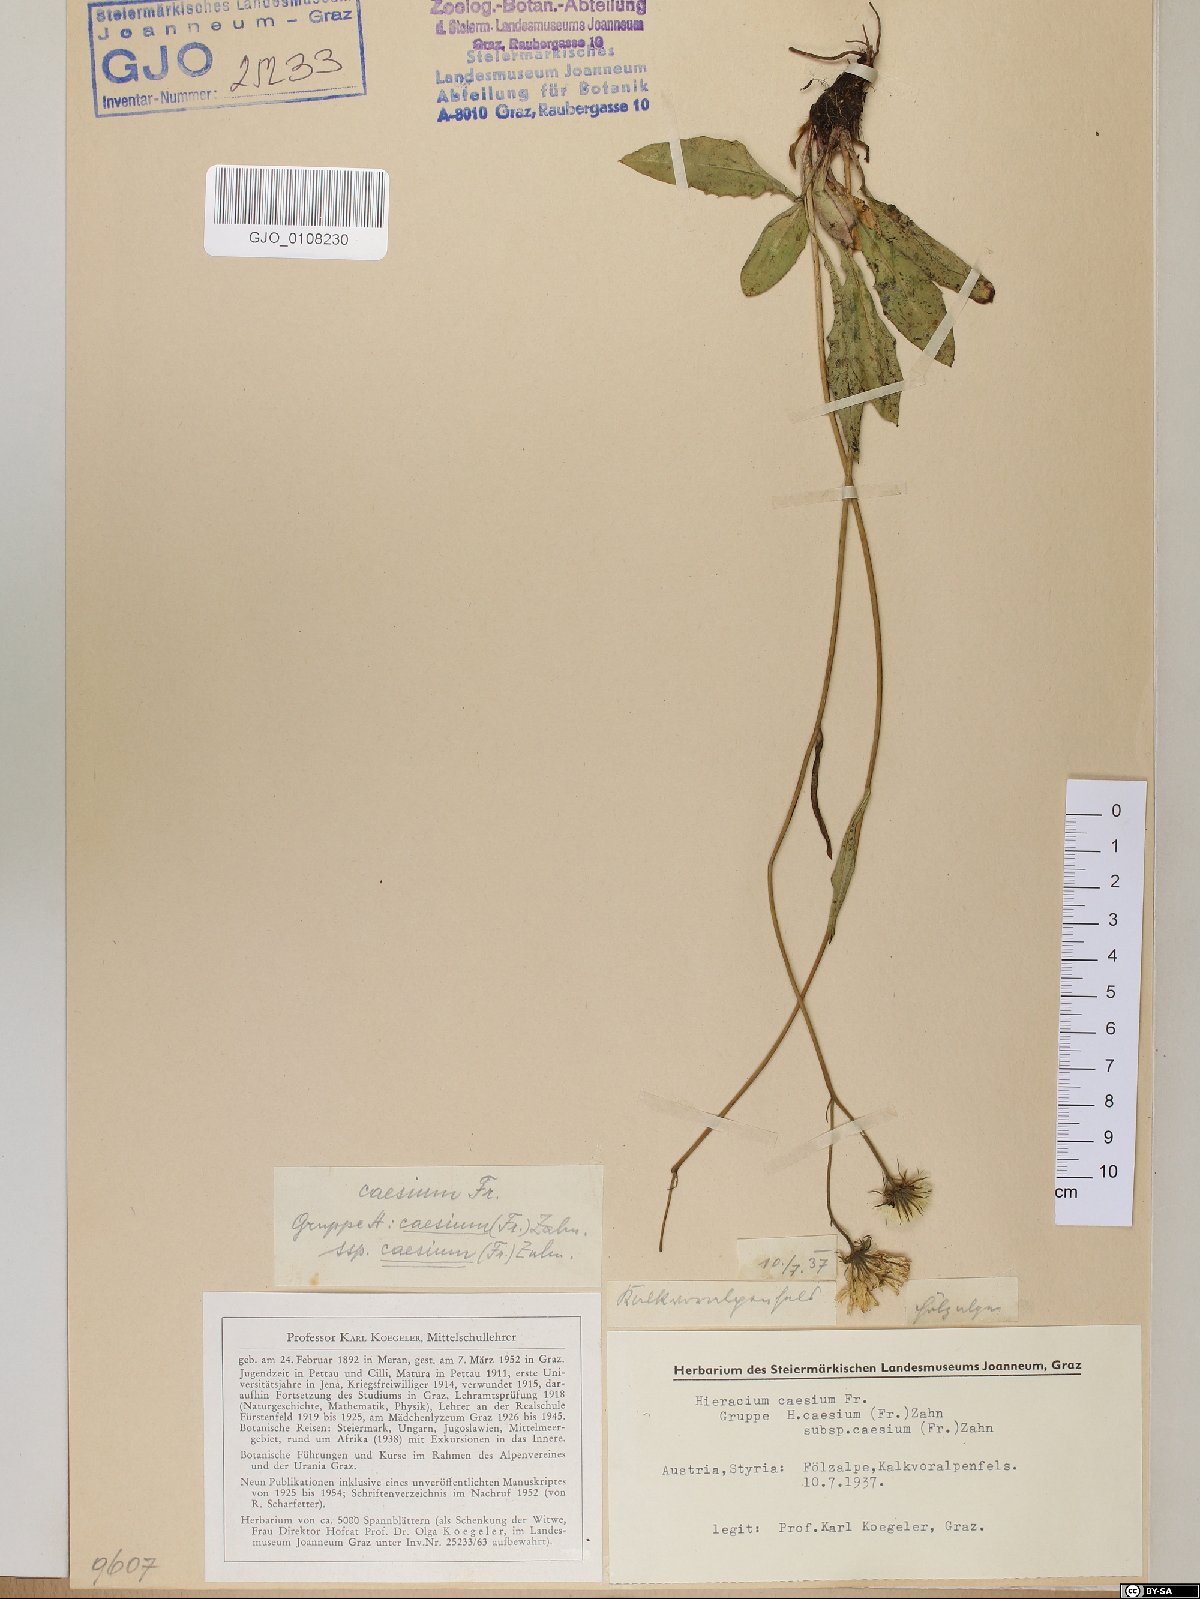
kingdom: Plantae
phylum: Tracheophyta
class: Magnoliopsida
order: Asterales
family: Asteraceae
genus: Hieracium
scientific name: Hieracium caesium
